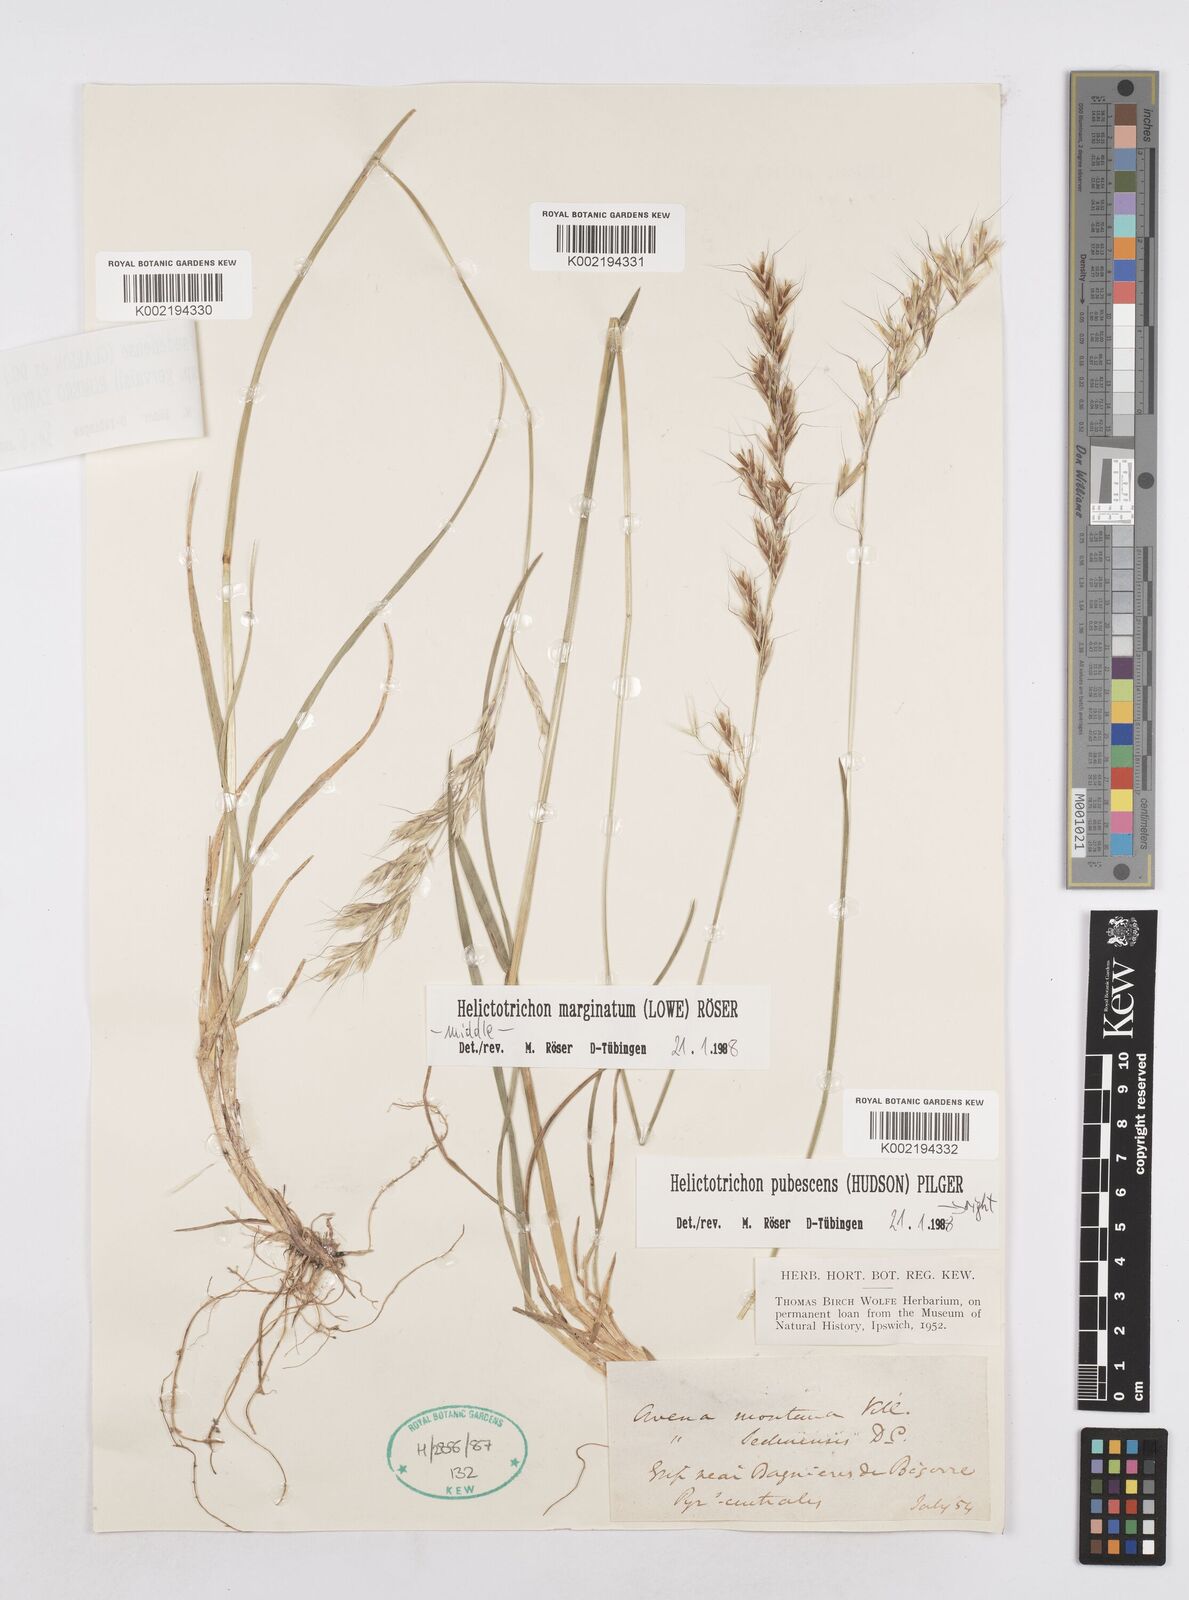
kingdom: Plantae
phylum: Tracheophyta
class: Liliopsida
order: Poales
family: Poaceae
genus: Helictotrichon
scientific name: Helictotrichon sedenense
